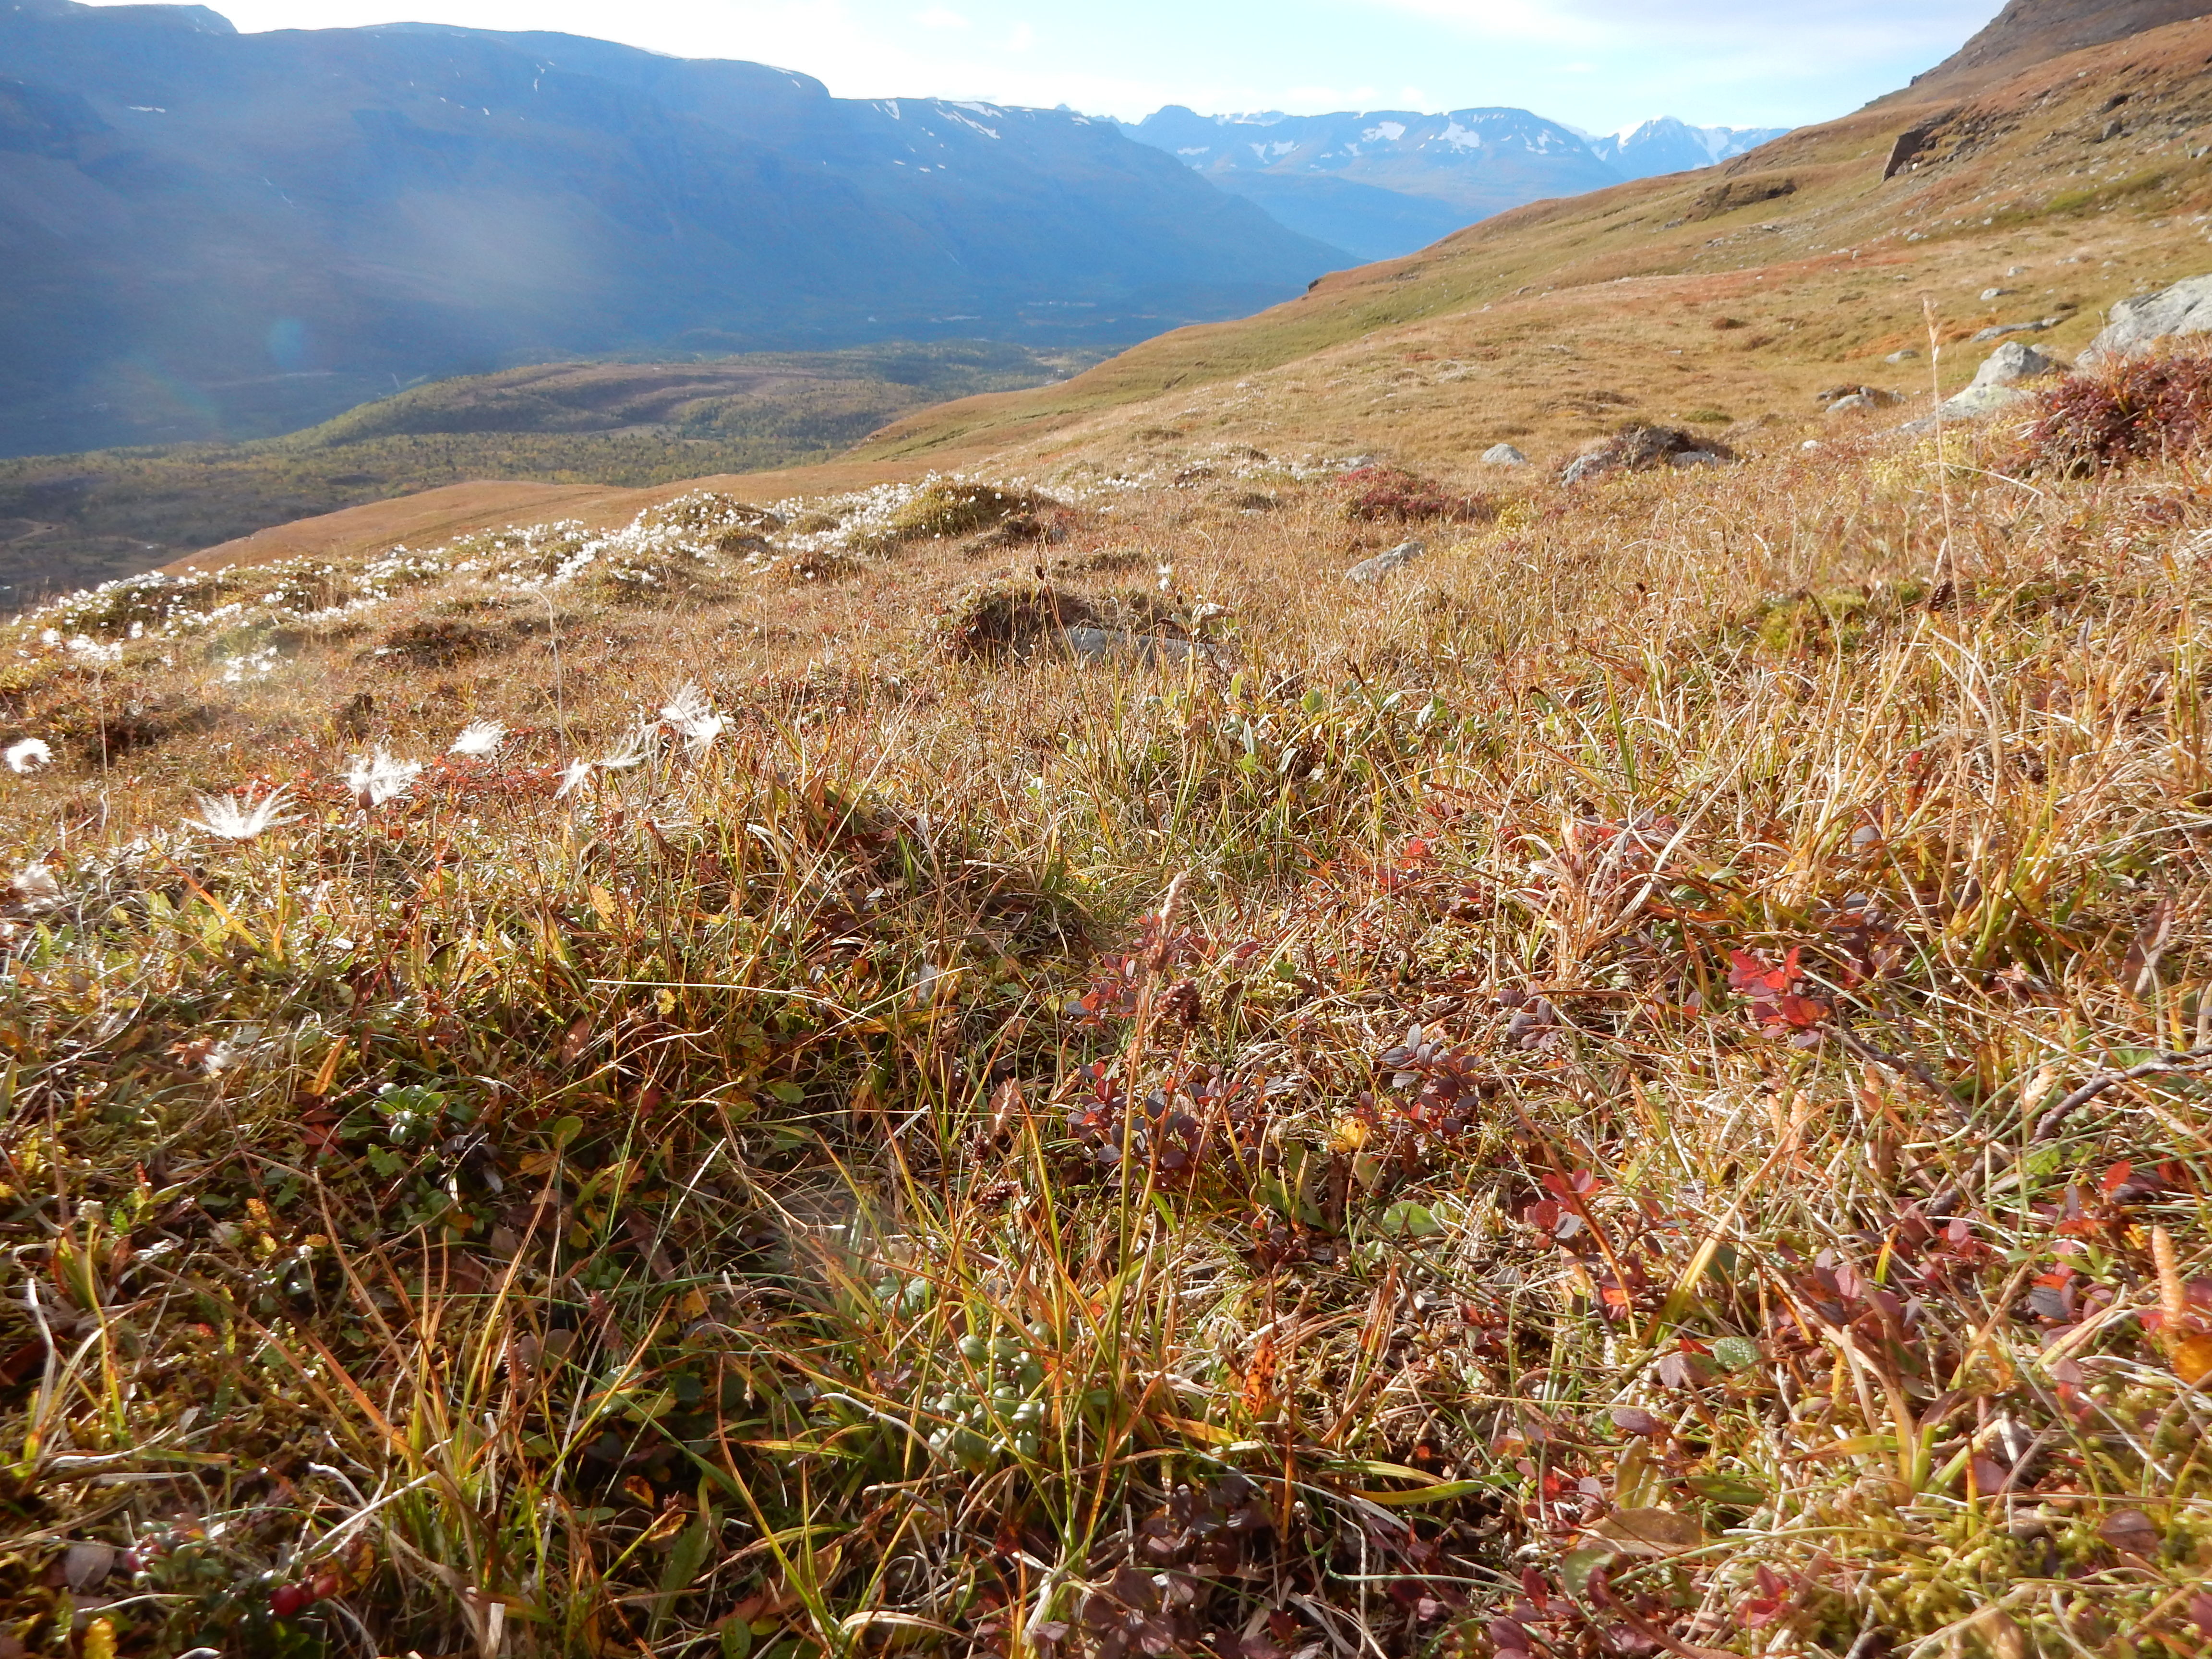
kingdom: Plantae
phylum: Tracheophyta
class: Liliopsida
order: Poales
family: Cyperaceae
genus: Carex
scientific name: Carex stylosa
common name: Long-styled sedge
